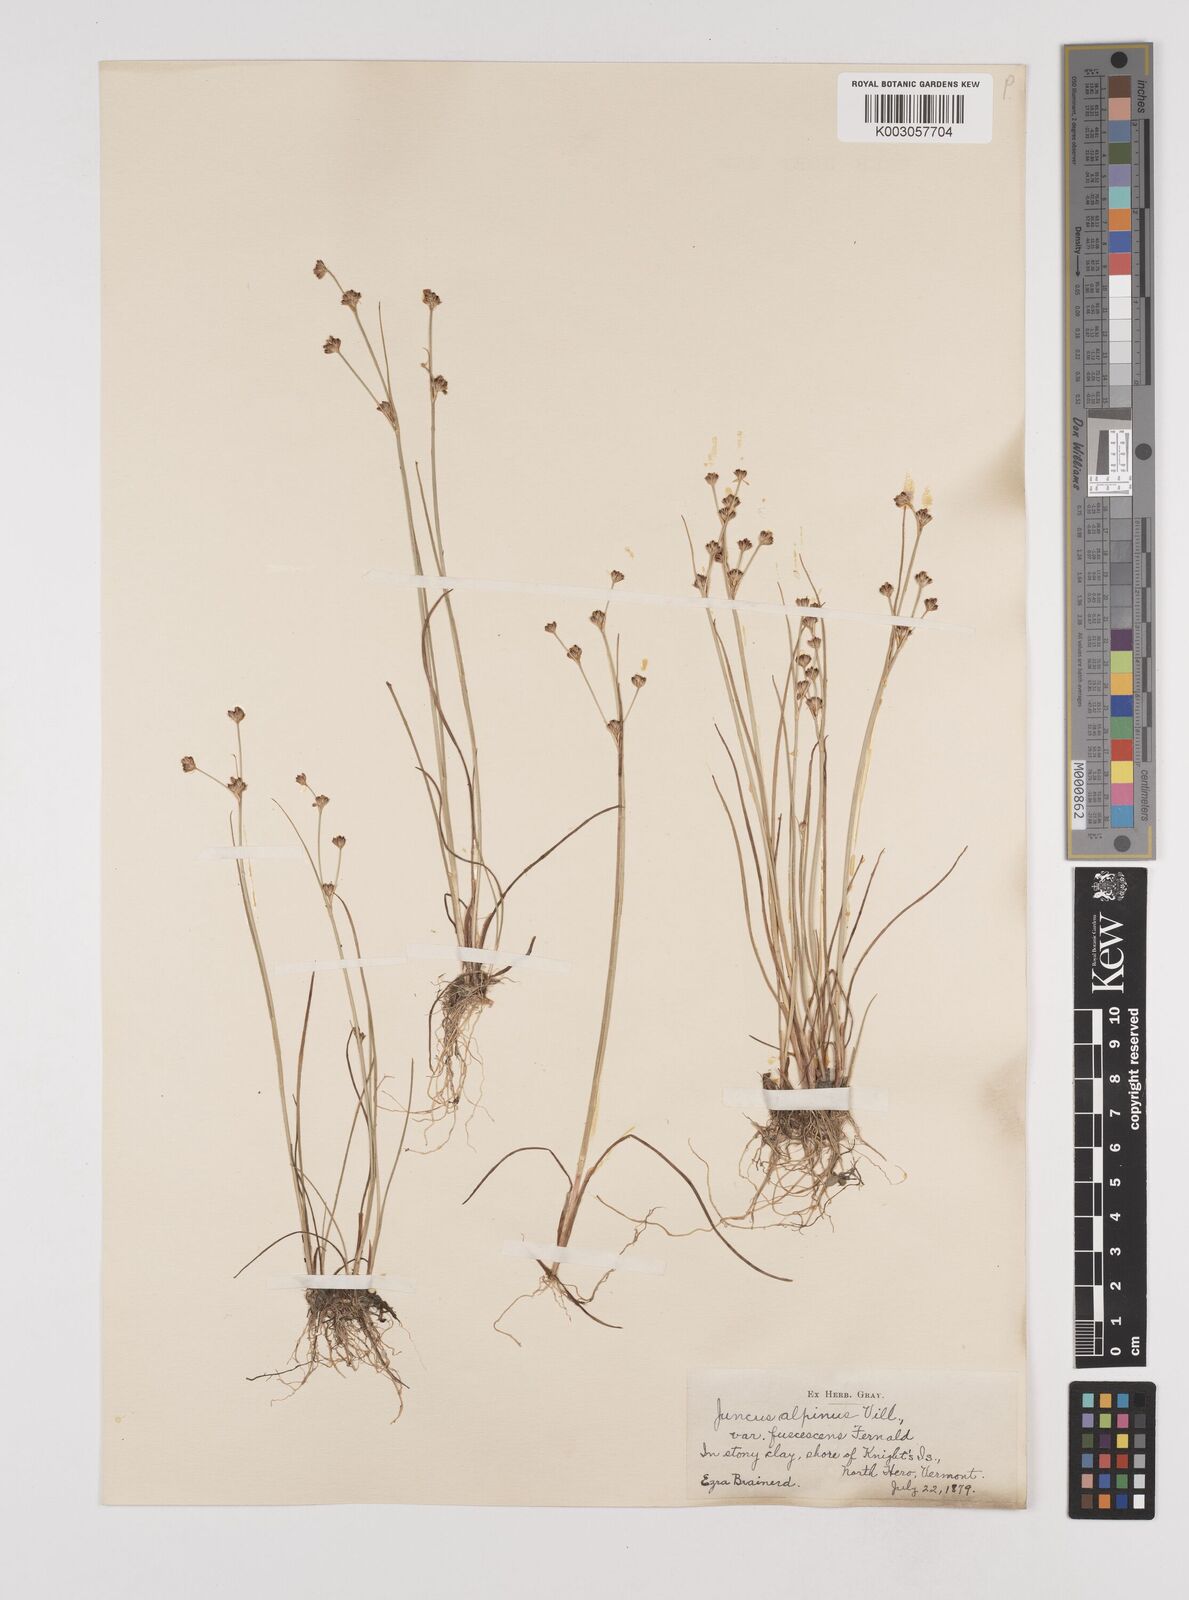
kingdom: Plantae
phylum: Tracheophyta
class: Liliopsida
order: Poales
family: Juncaceae
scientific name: Juncaceae
